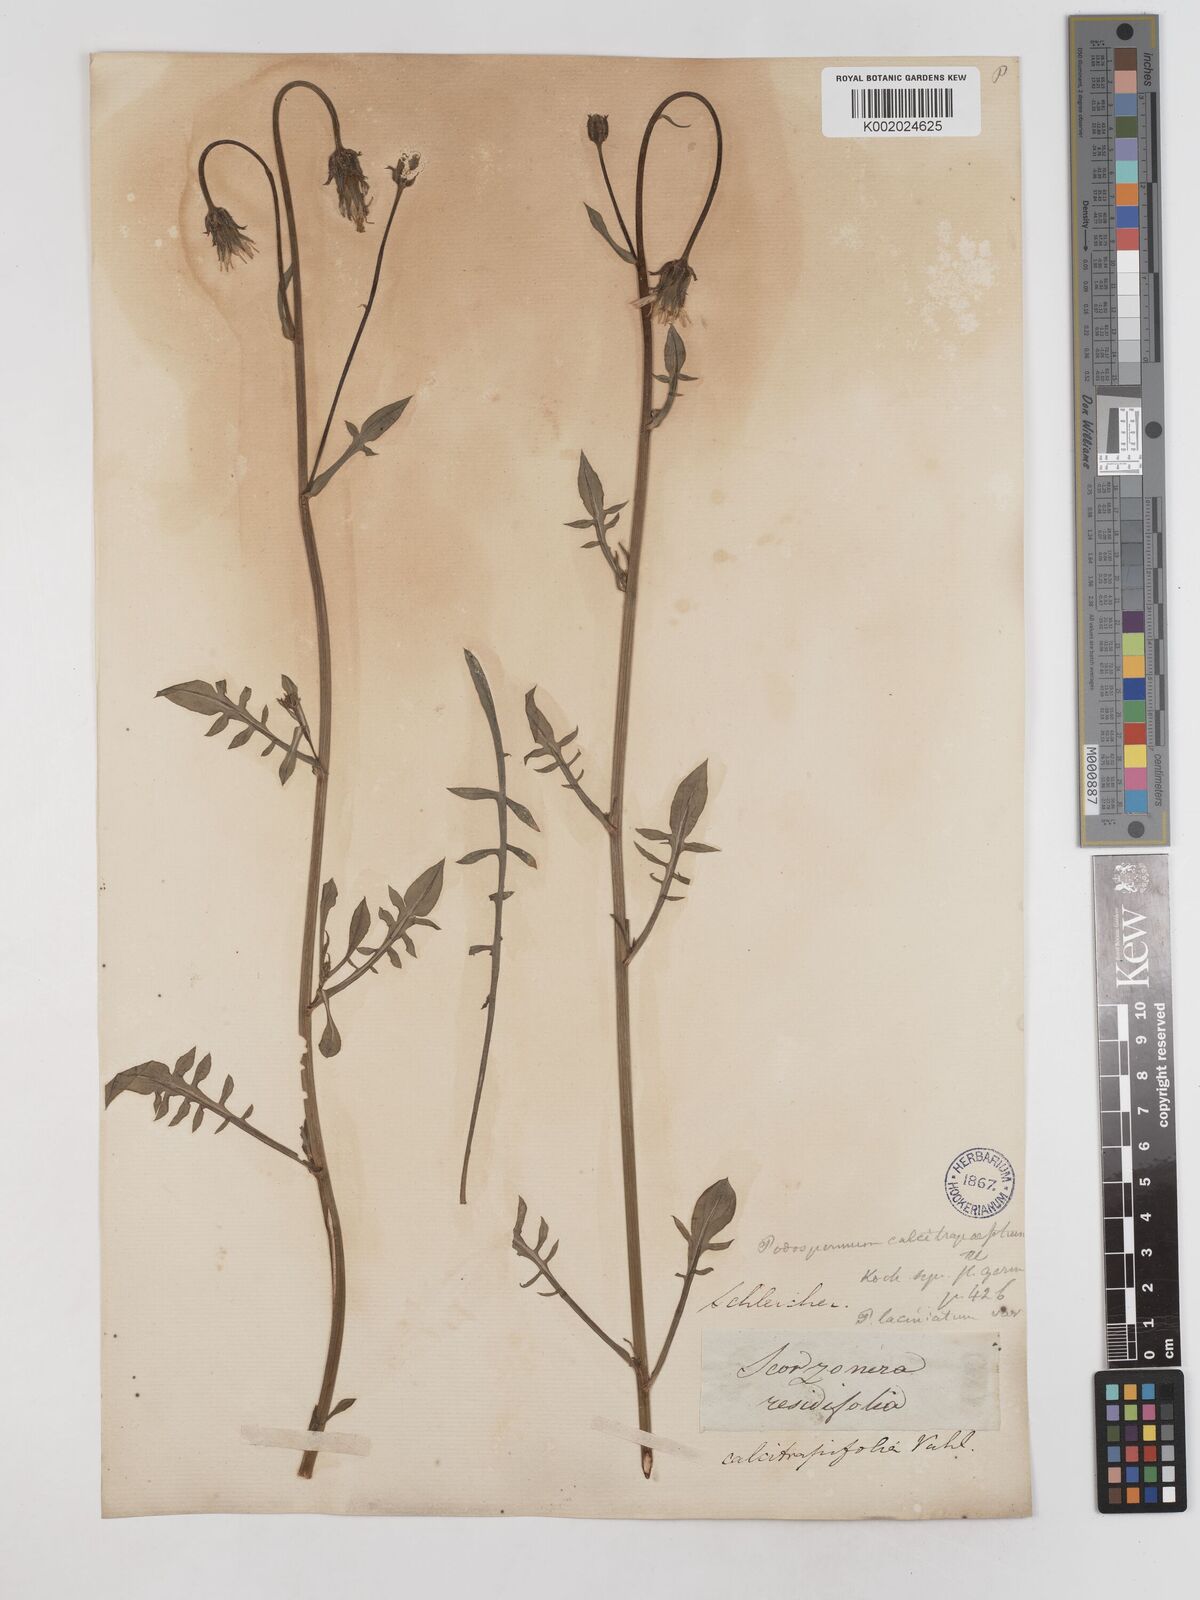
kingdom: Plantae
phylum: Tracheophyta
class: Magnoliopsida
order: Asterales
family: Asteraceae
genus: Scorzonera
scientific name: Scorzonera
